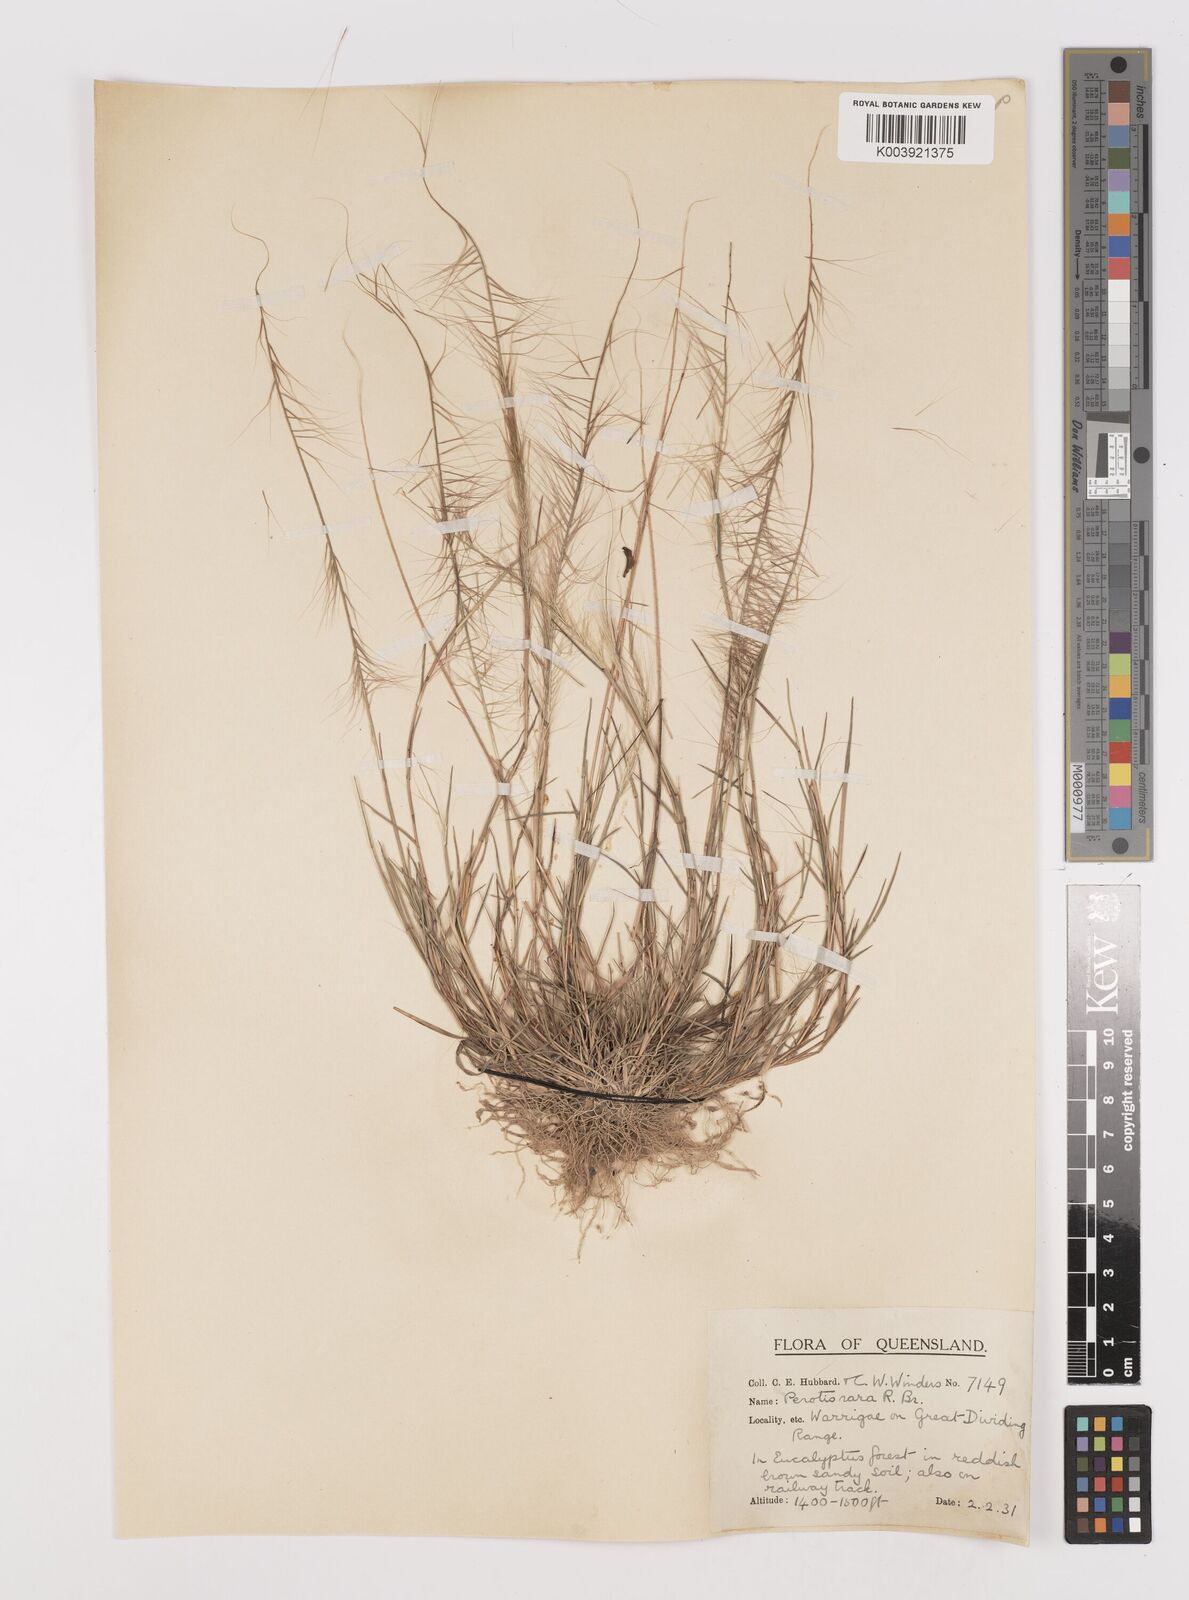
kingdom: Plantae
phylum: Tracheophyta
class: Liliopsida
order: Poales
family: Poaceae
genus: Perotis
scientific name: Perotis rara
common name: Comet grass
